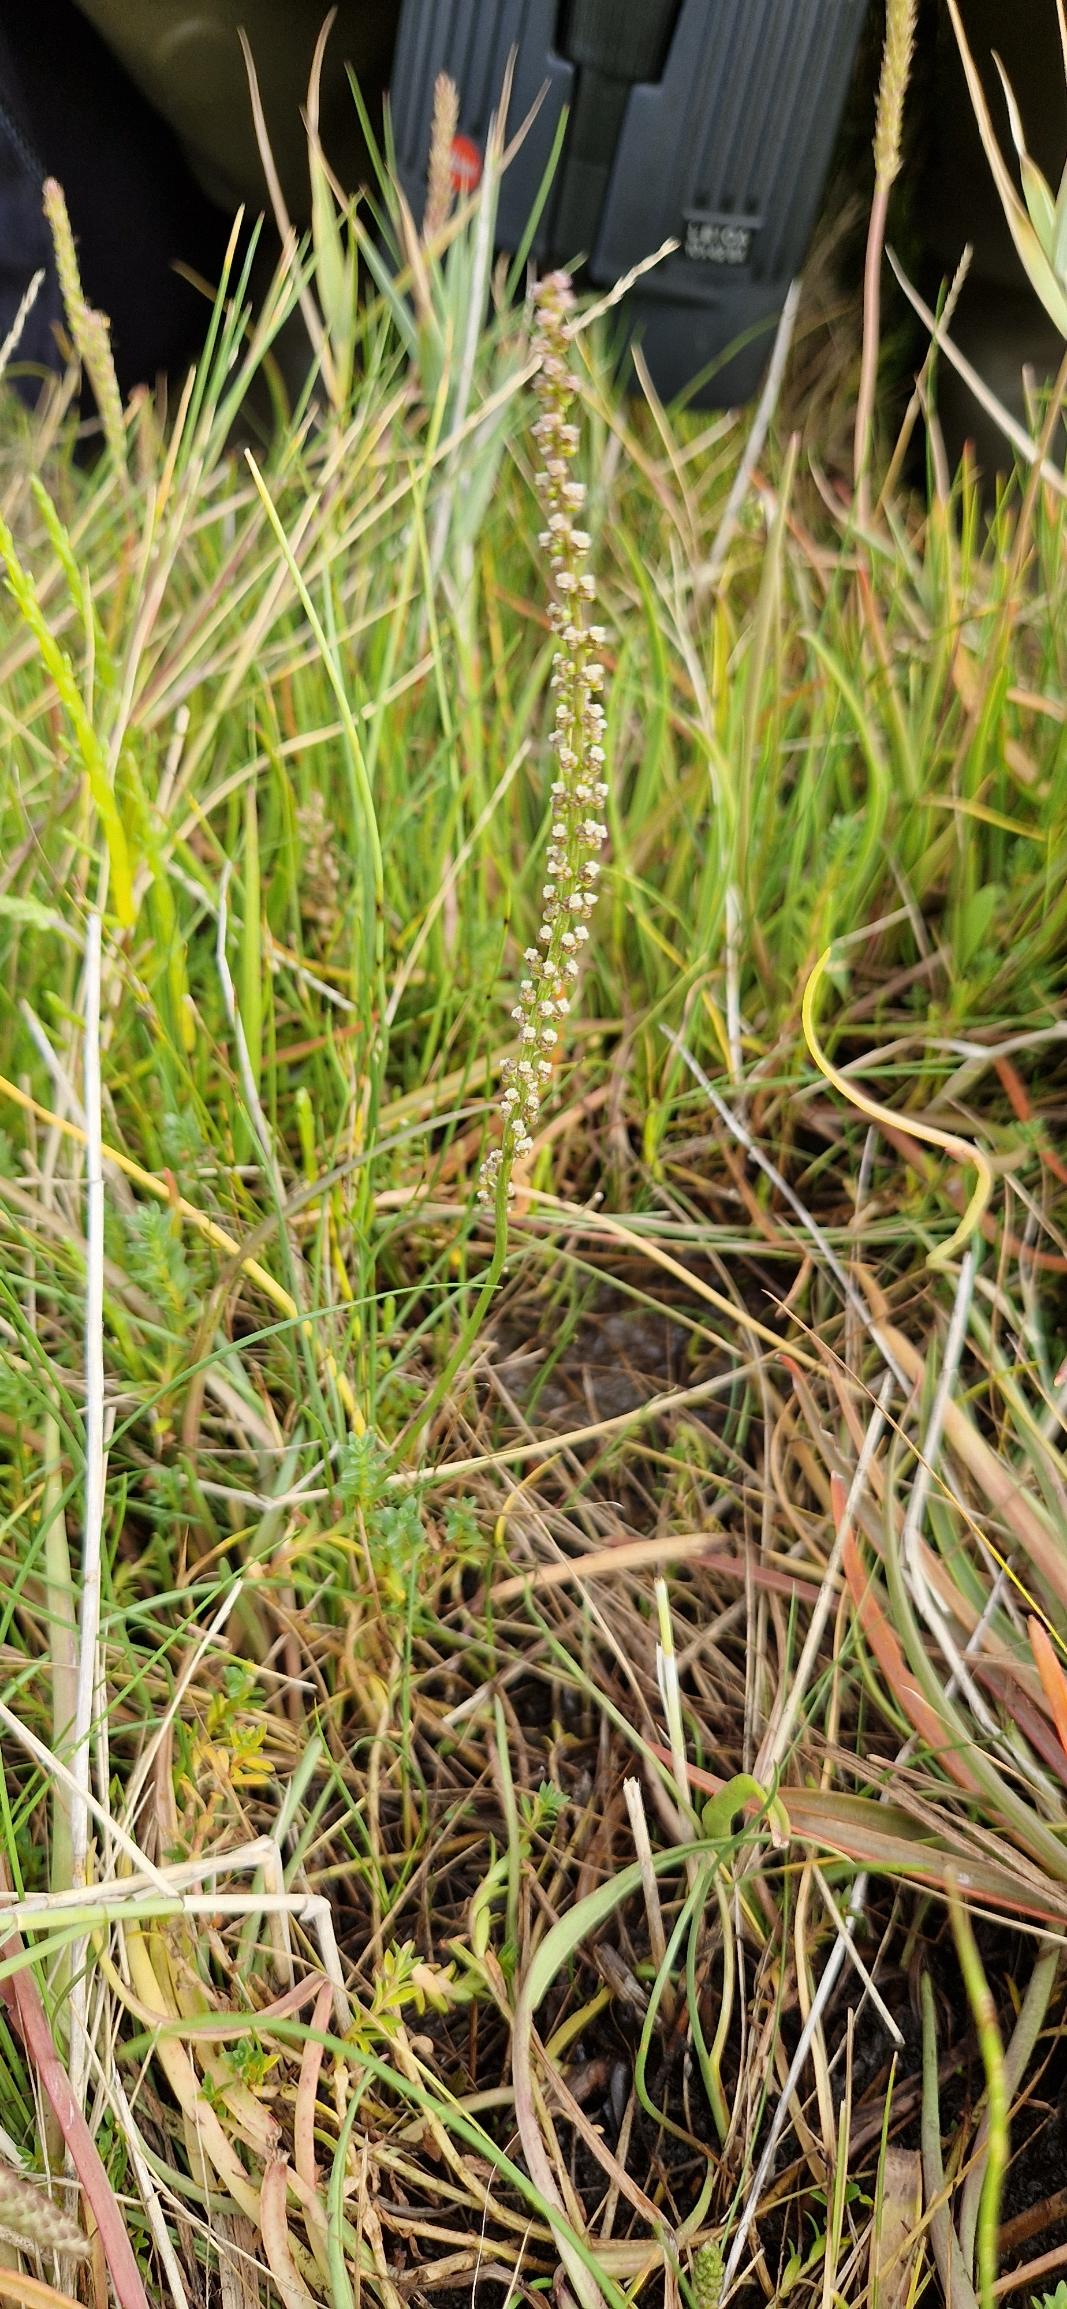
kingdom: Plantae
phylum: Tracheophyta
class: Liliopsida
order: Alismatales
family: Juncaginaceae
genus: Triglochin
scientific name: Triglochin maritima
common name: Strand-trehage
